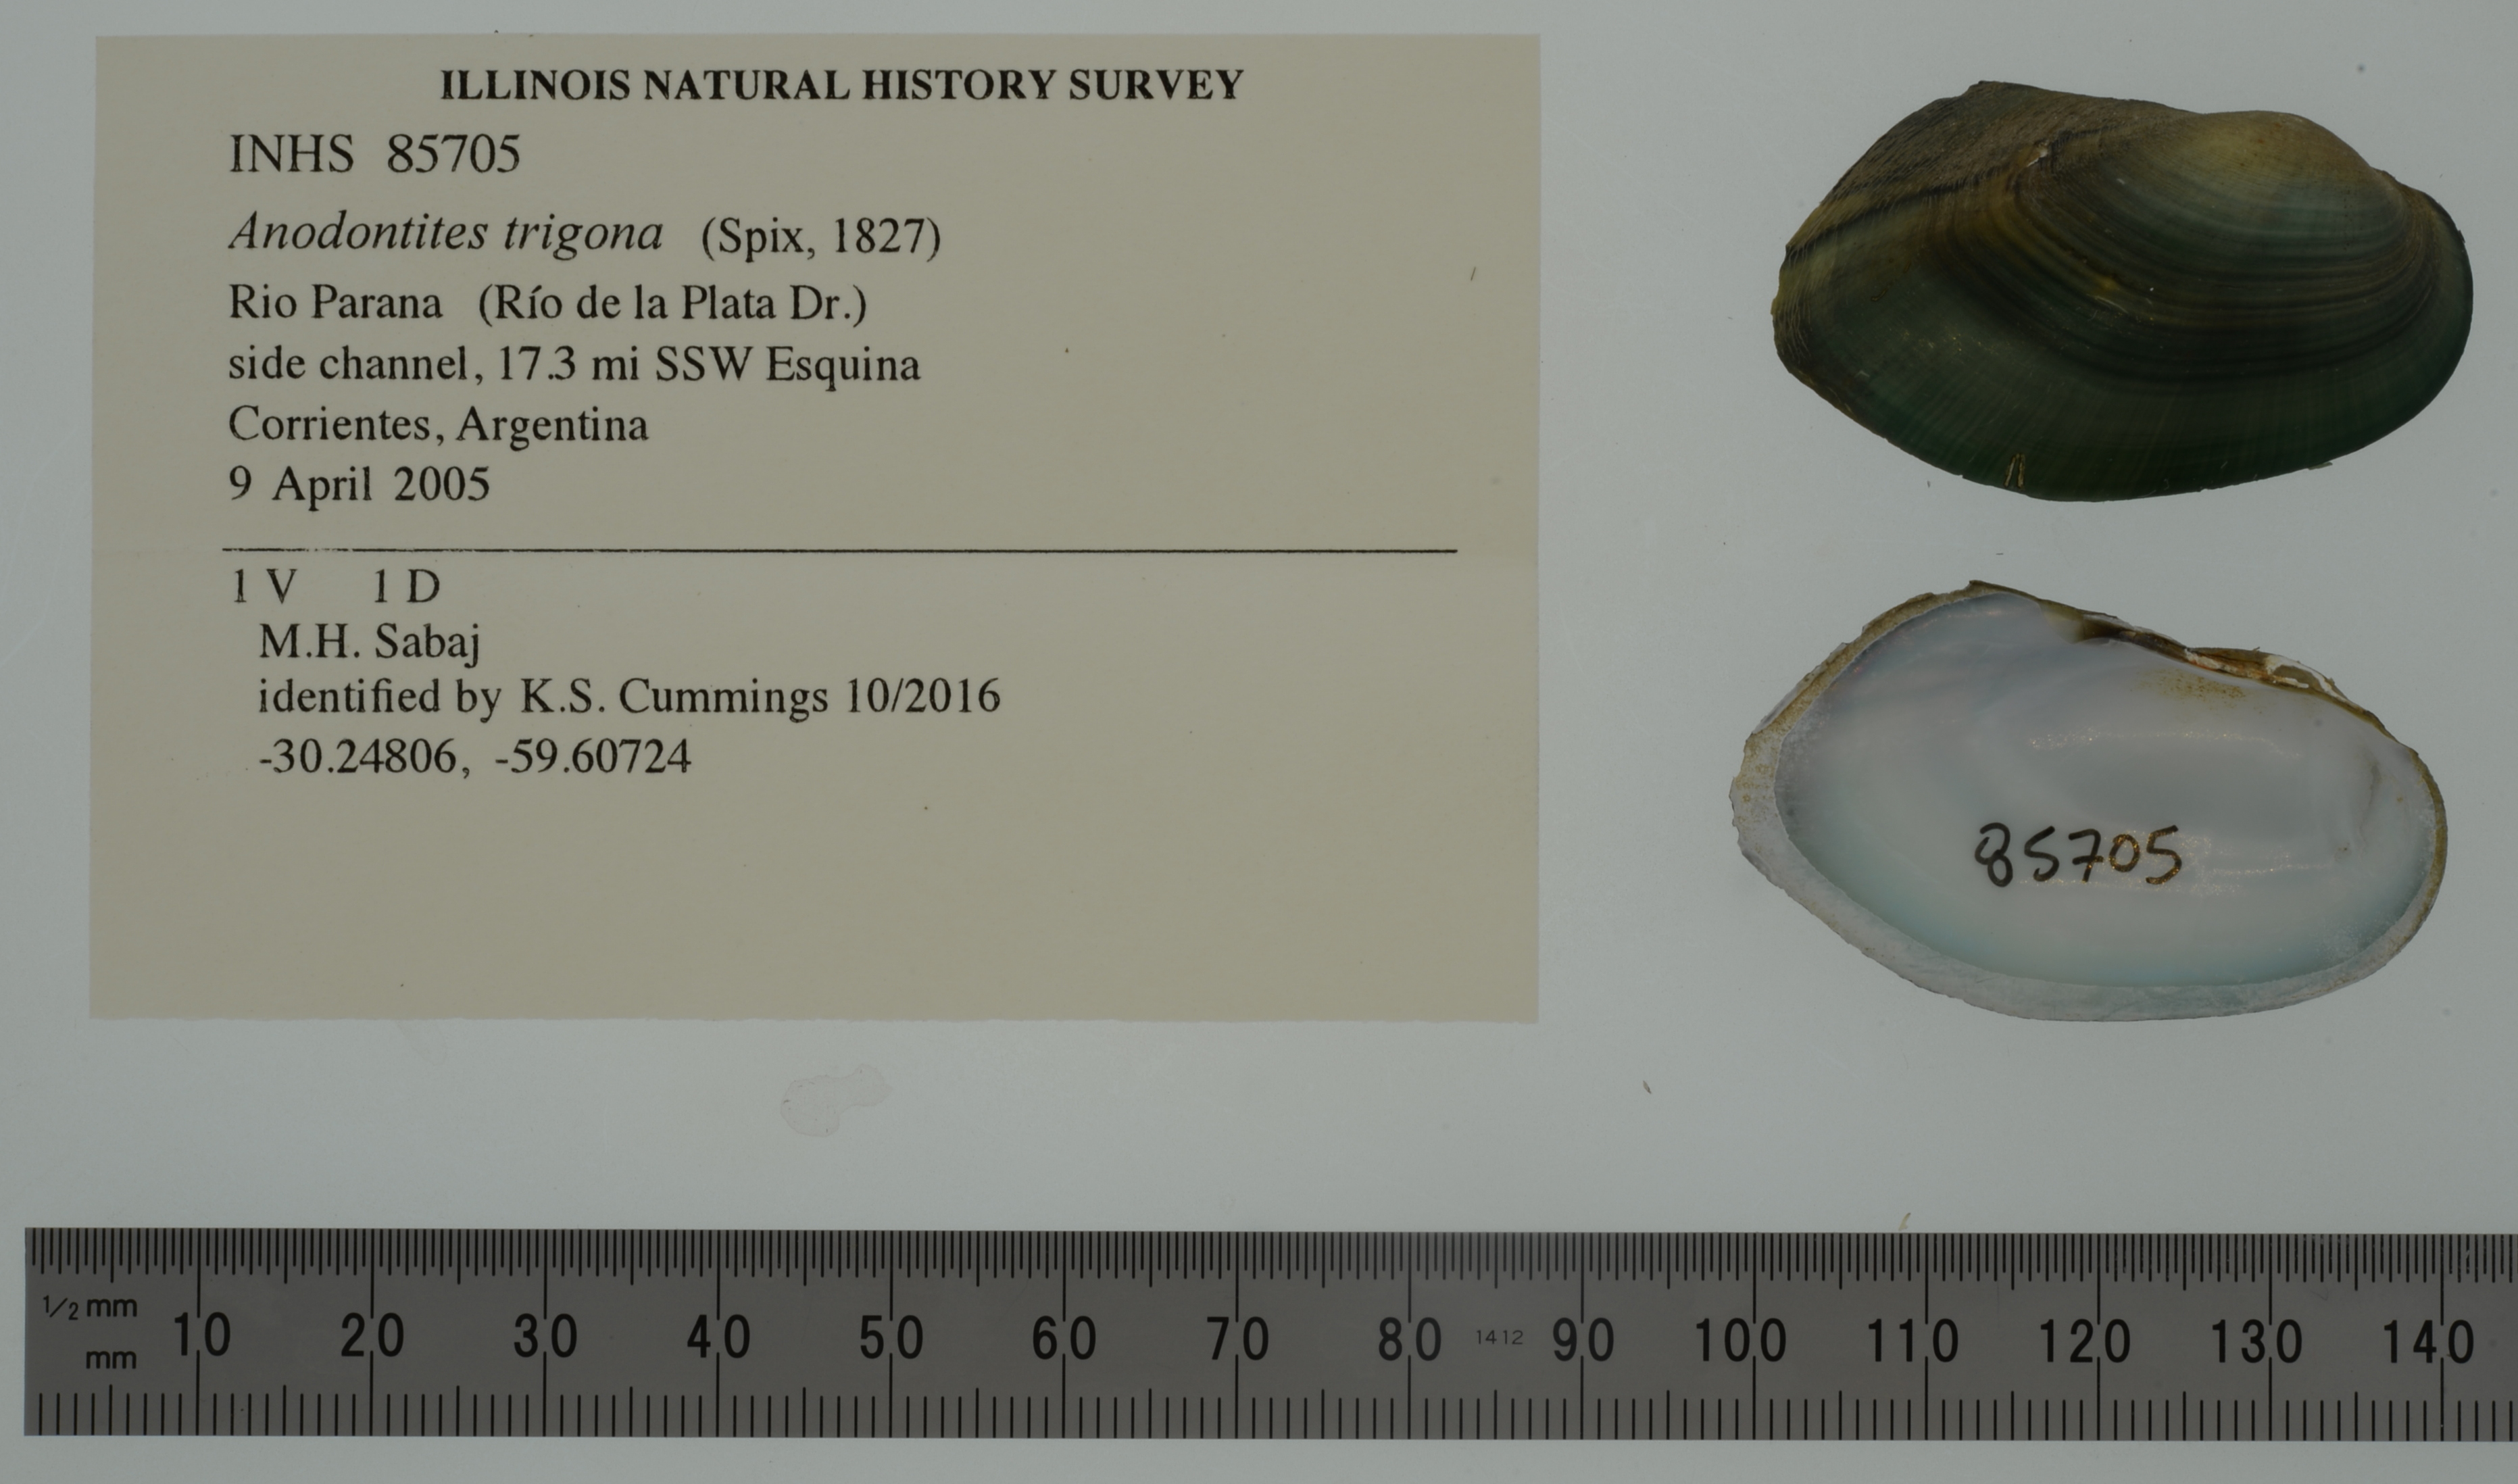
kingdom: Animalia
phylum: Mollusca
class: Bivalvia
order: Unionida
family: Mycetopodidae
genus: Anodontites
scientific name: Anodontites trigona
